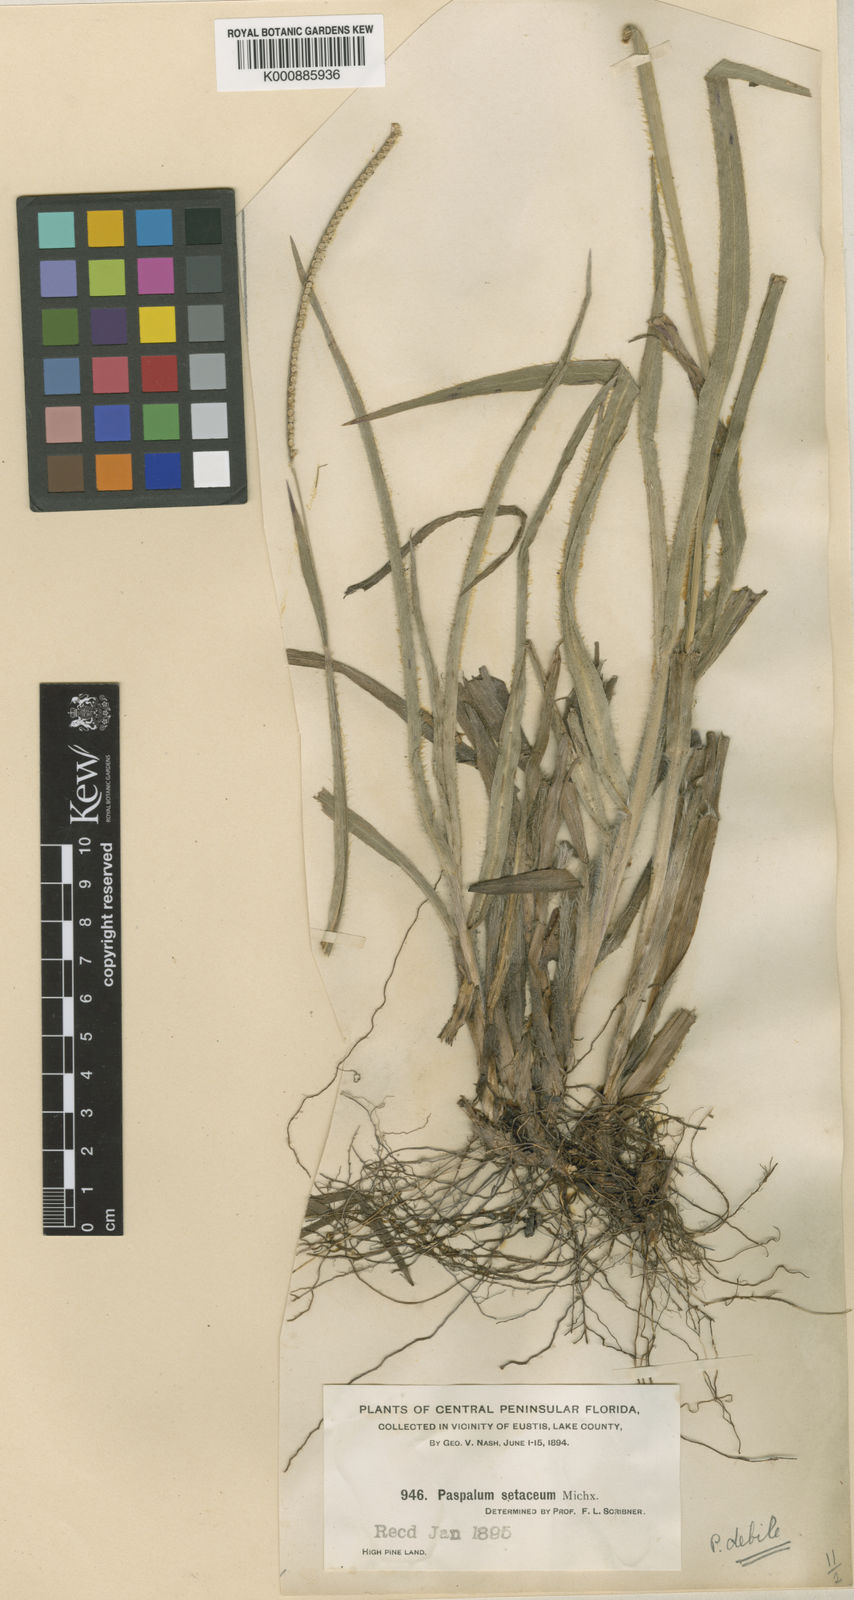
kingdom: Plantae
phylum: Tracheophyta
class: Liliopsida
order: Poales
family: Poaceae
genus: Paspalum
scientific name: Paspalum setaceum
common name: Slender paspalum
